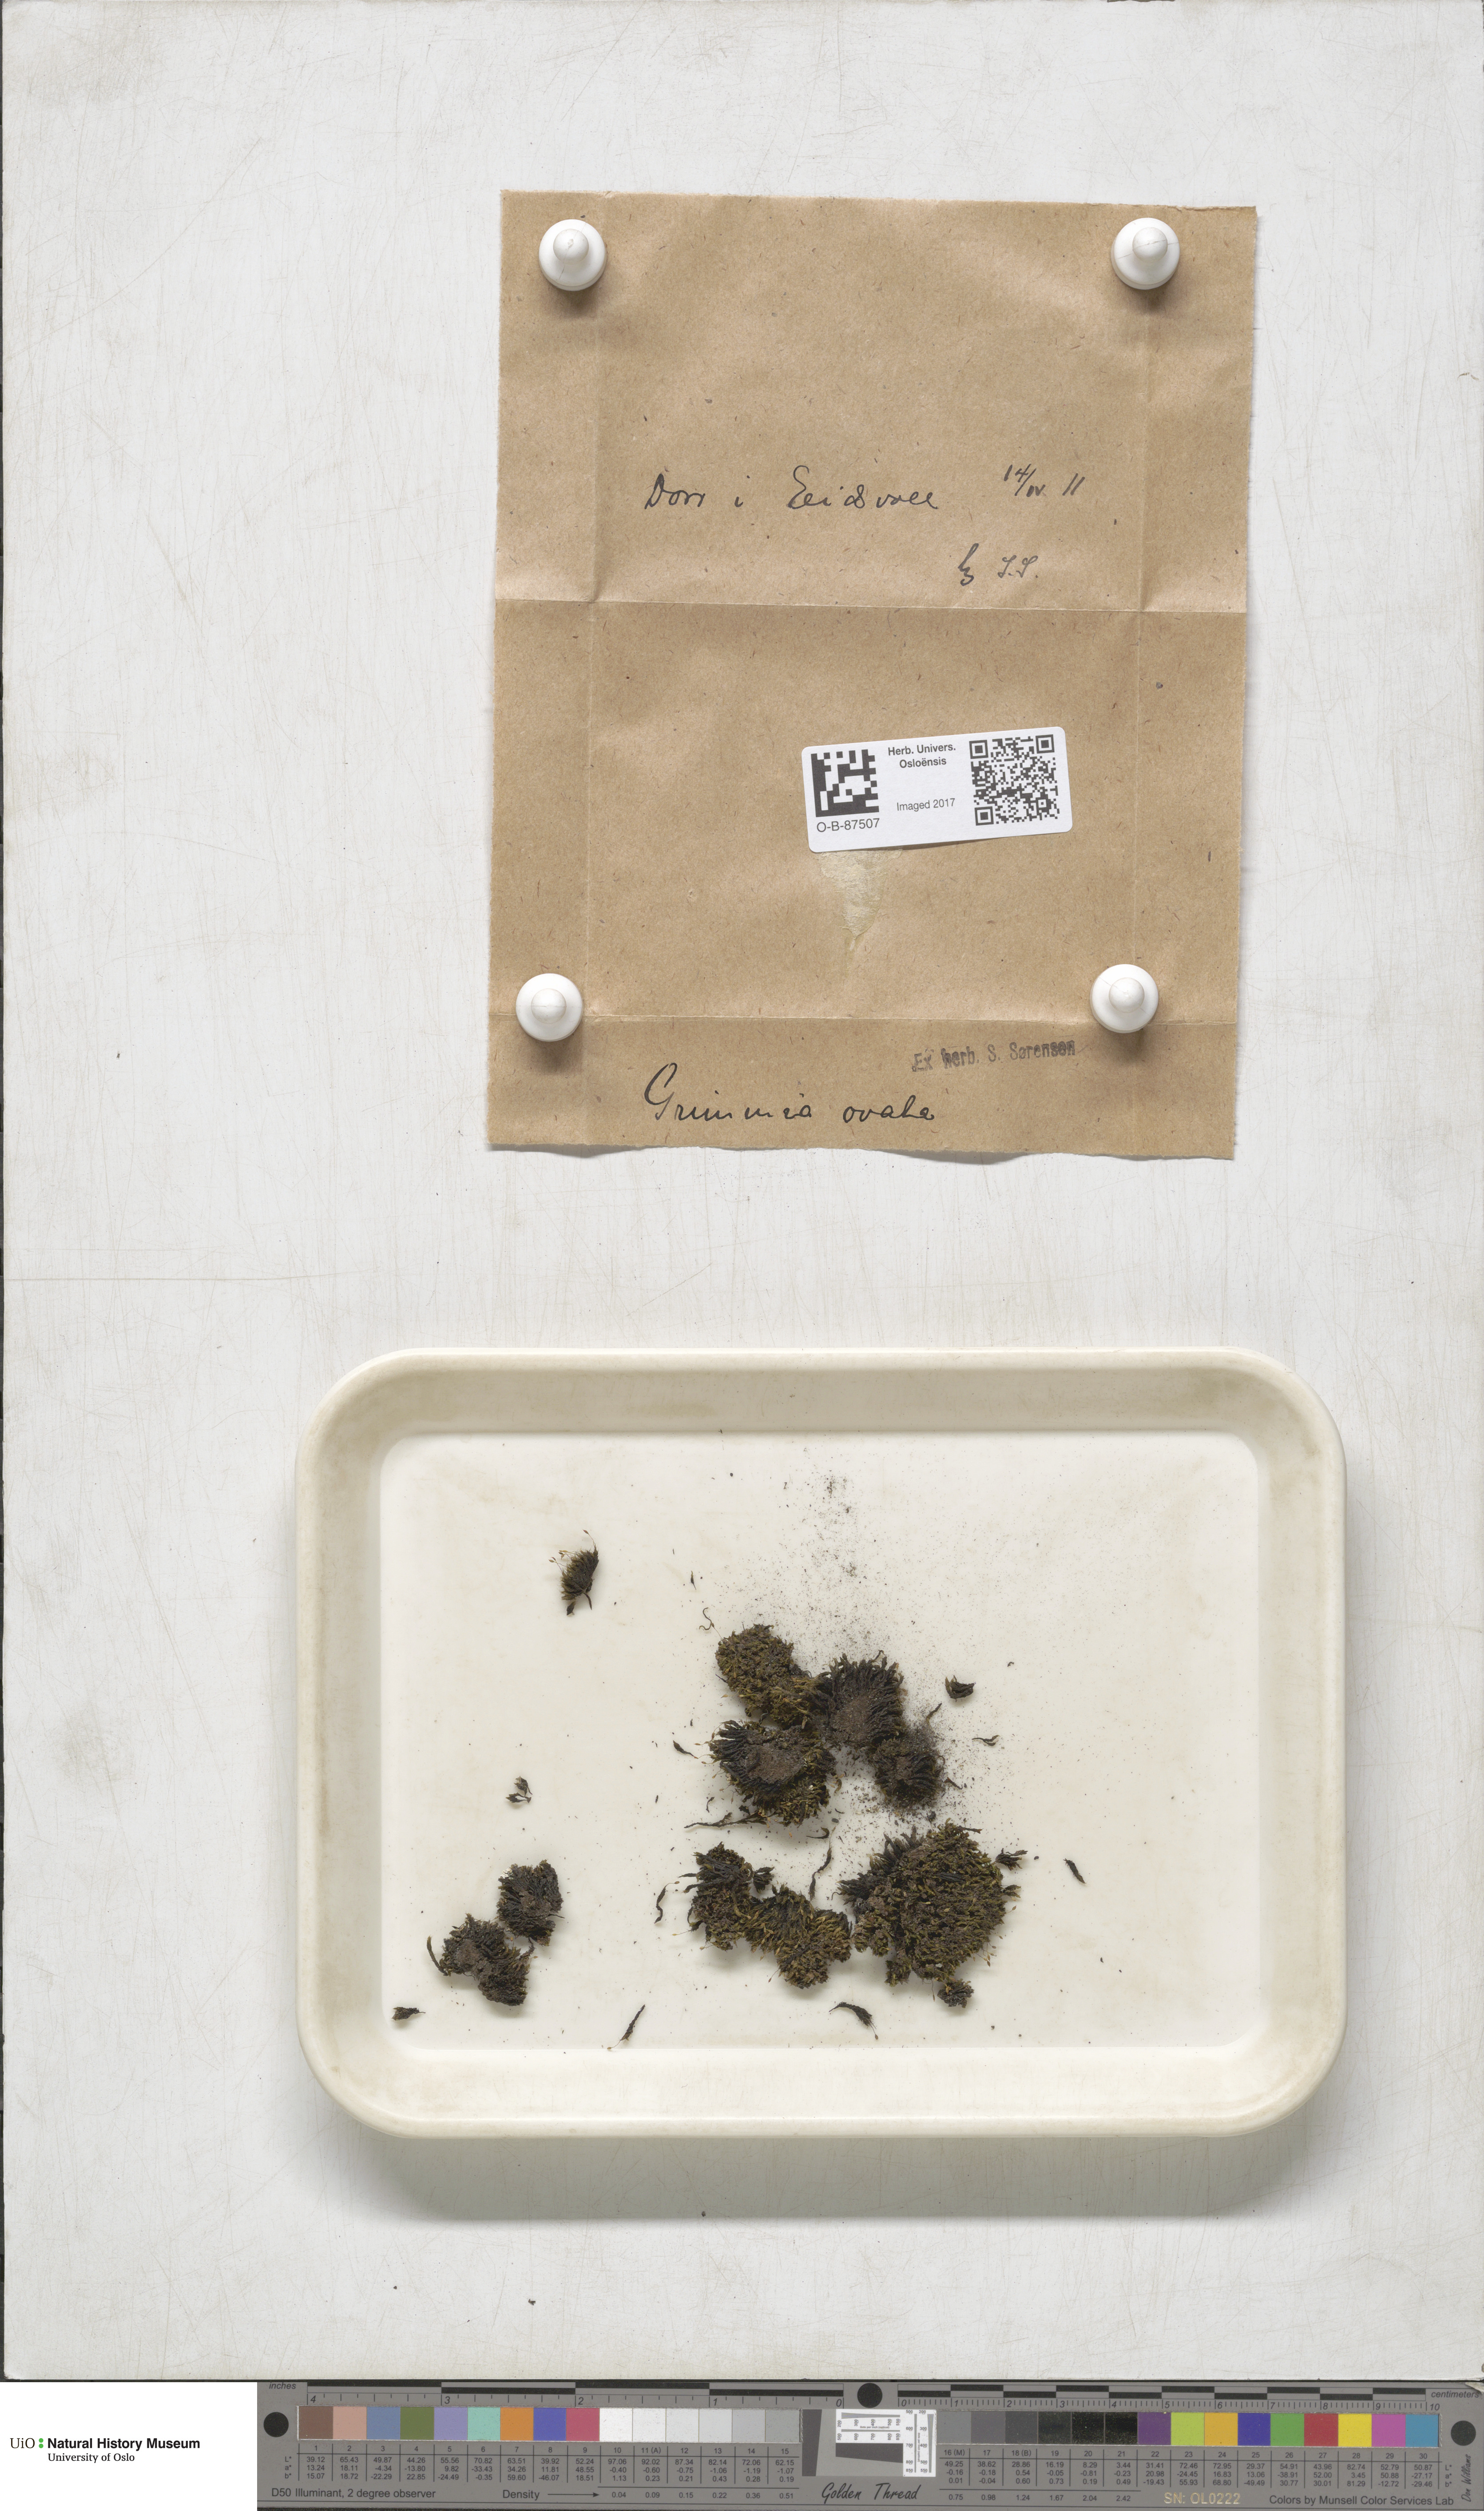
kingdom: Plantae
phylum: Bryophyta
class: Bryopsida
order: Grimmiales
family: Grimmiaceae
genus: Grimmia
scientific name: Grimmia ovalis
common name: Oval grimmia
